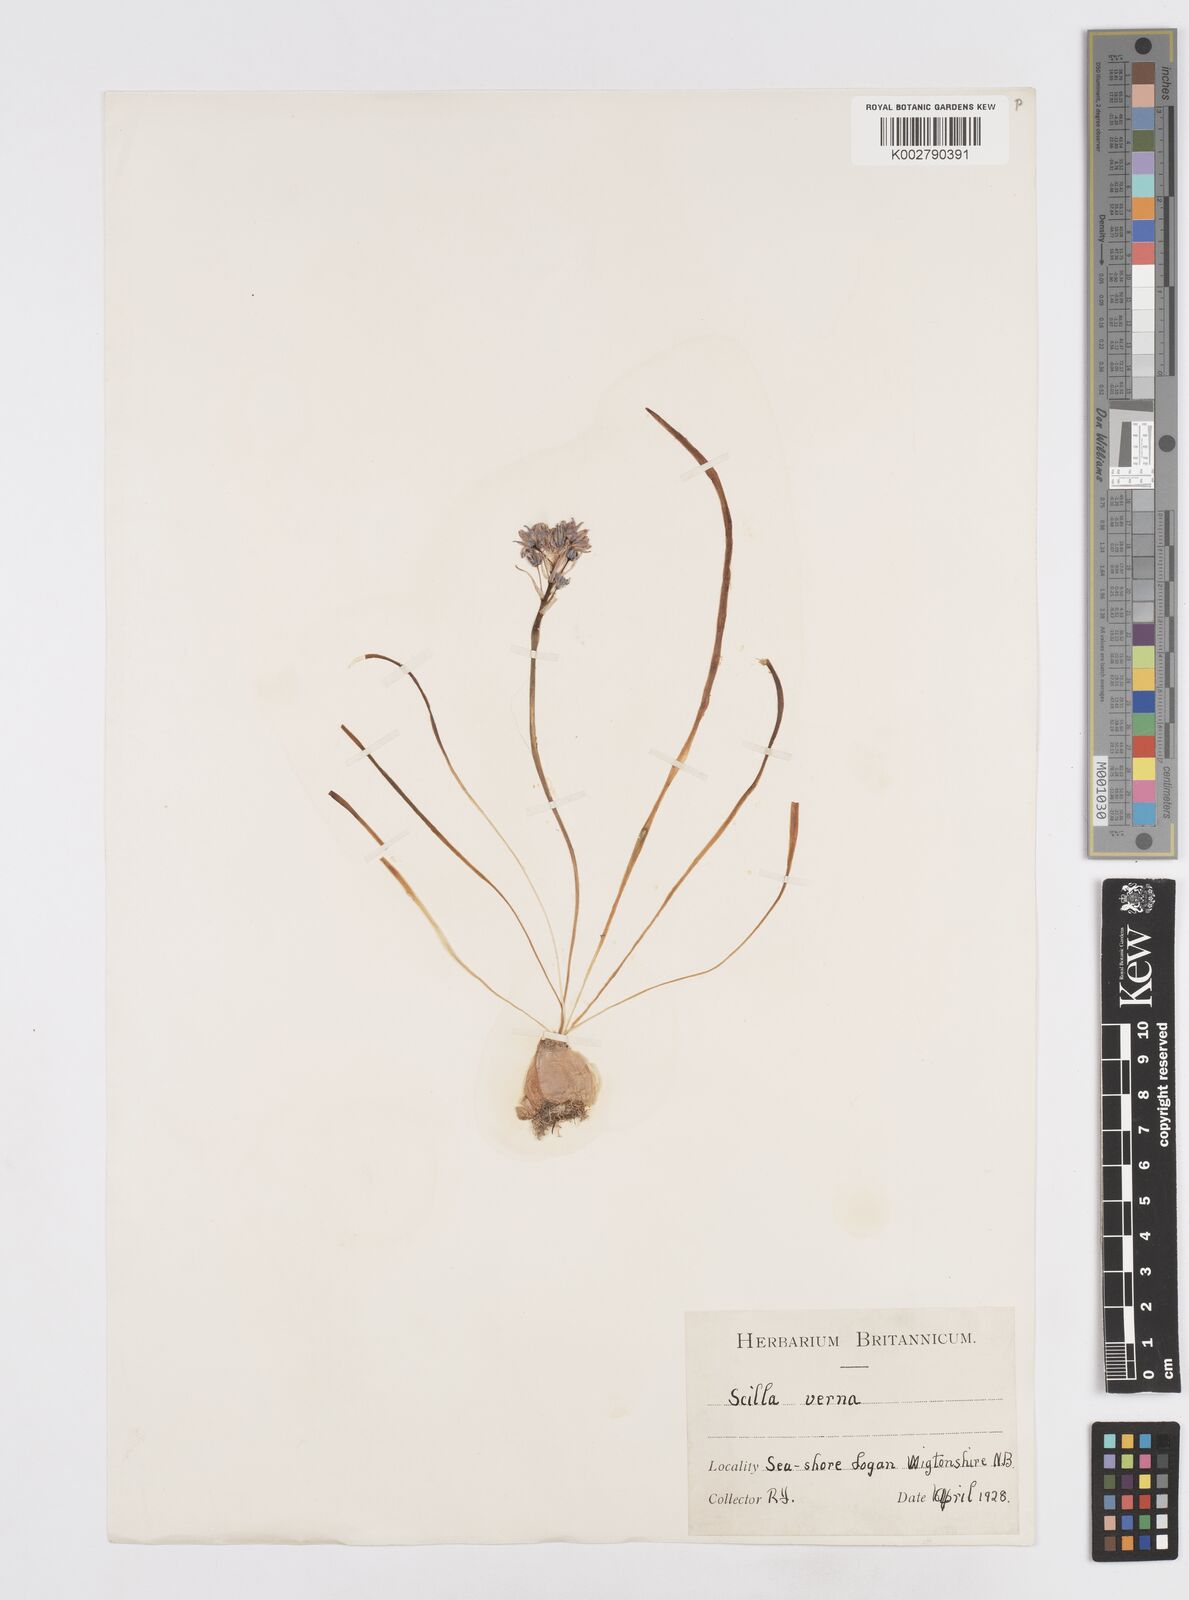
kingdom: Plantae
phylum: Tracheophyta
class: Liliopsida
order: Asparagales
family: Asparagaceae
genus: Scilla
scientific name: Scilla verna
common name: Spring squill
